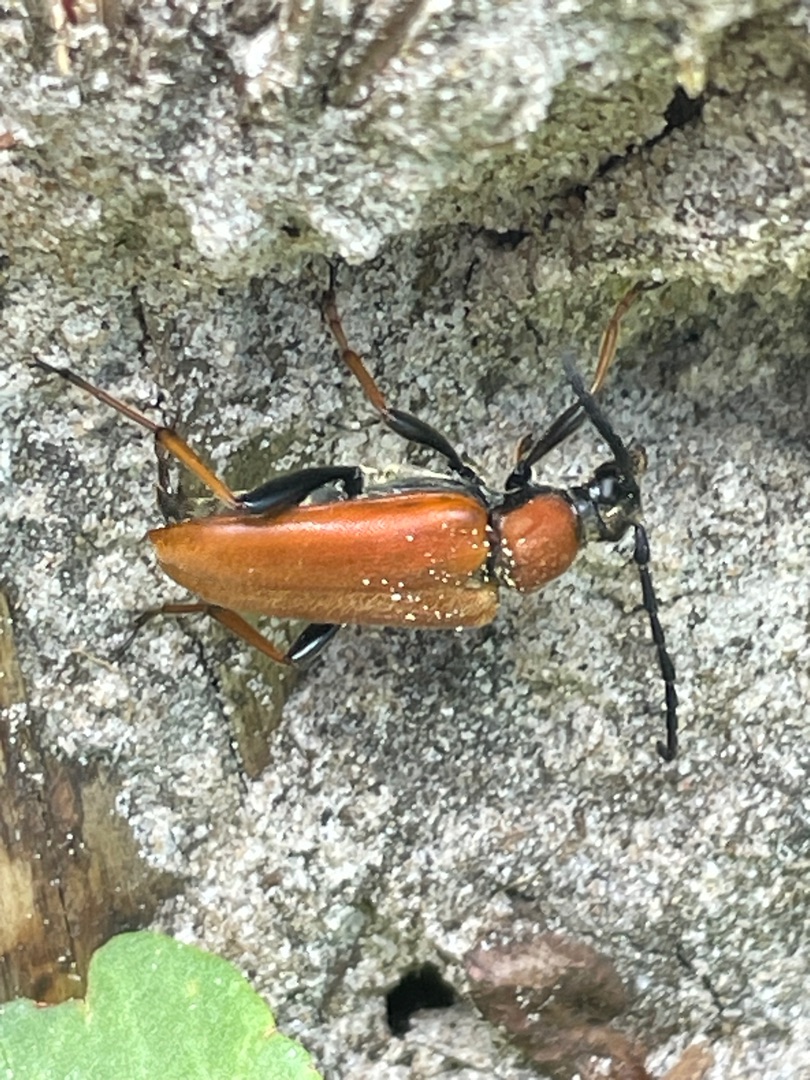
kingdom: Animalia
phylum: Arthropoda
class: Insecta
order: Coleoptera
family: Cerambycidae
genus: Stictoleptura
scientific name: Stictoleptura rubra
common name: Rød blomsterbuk
